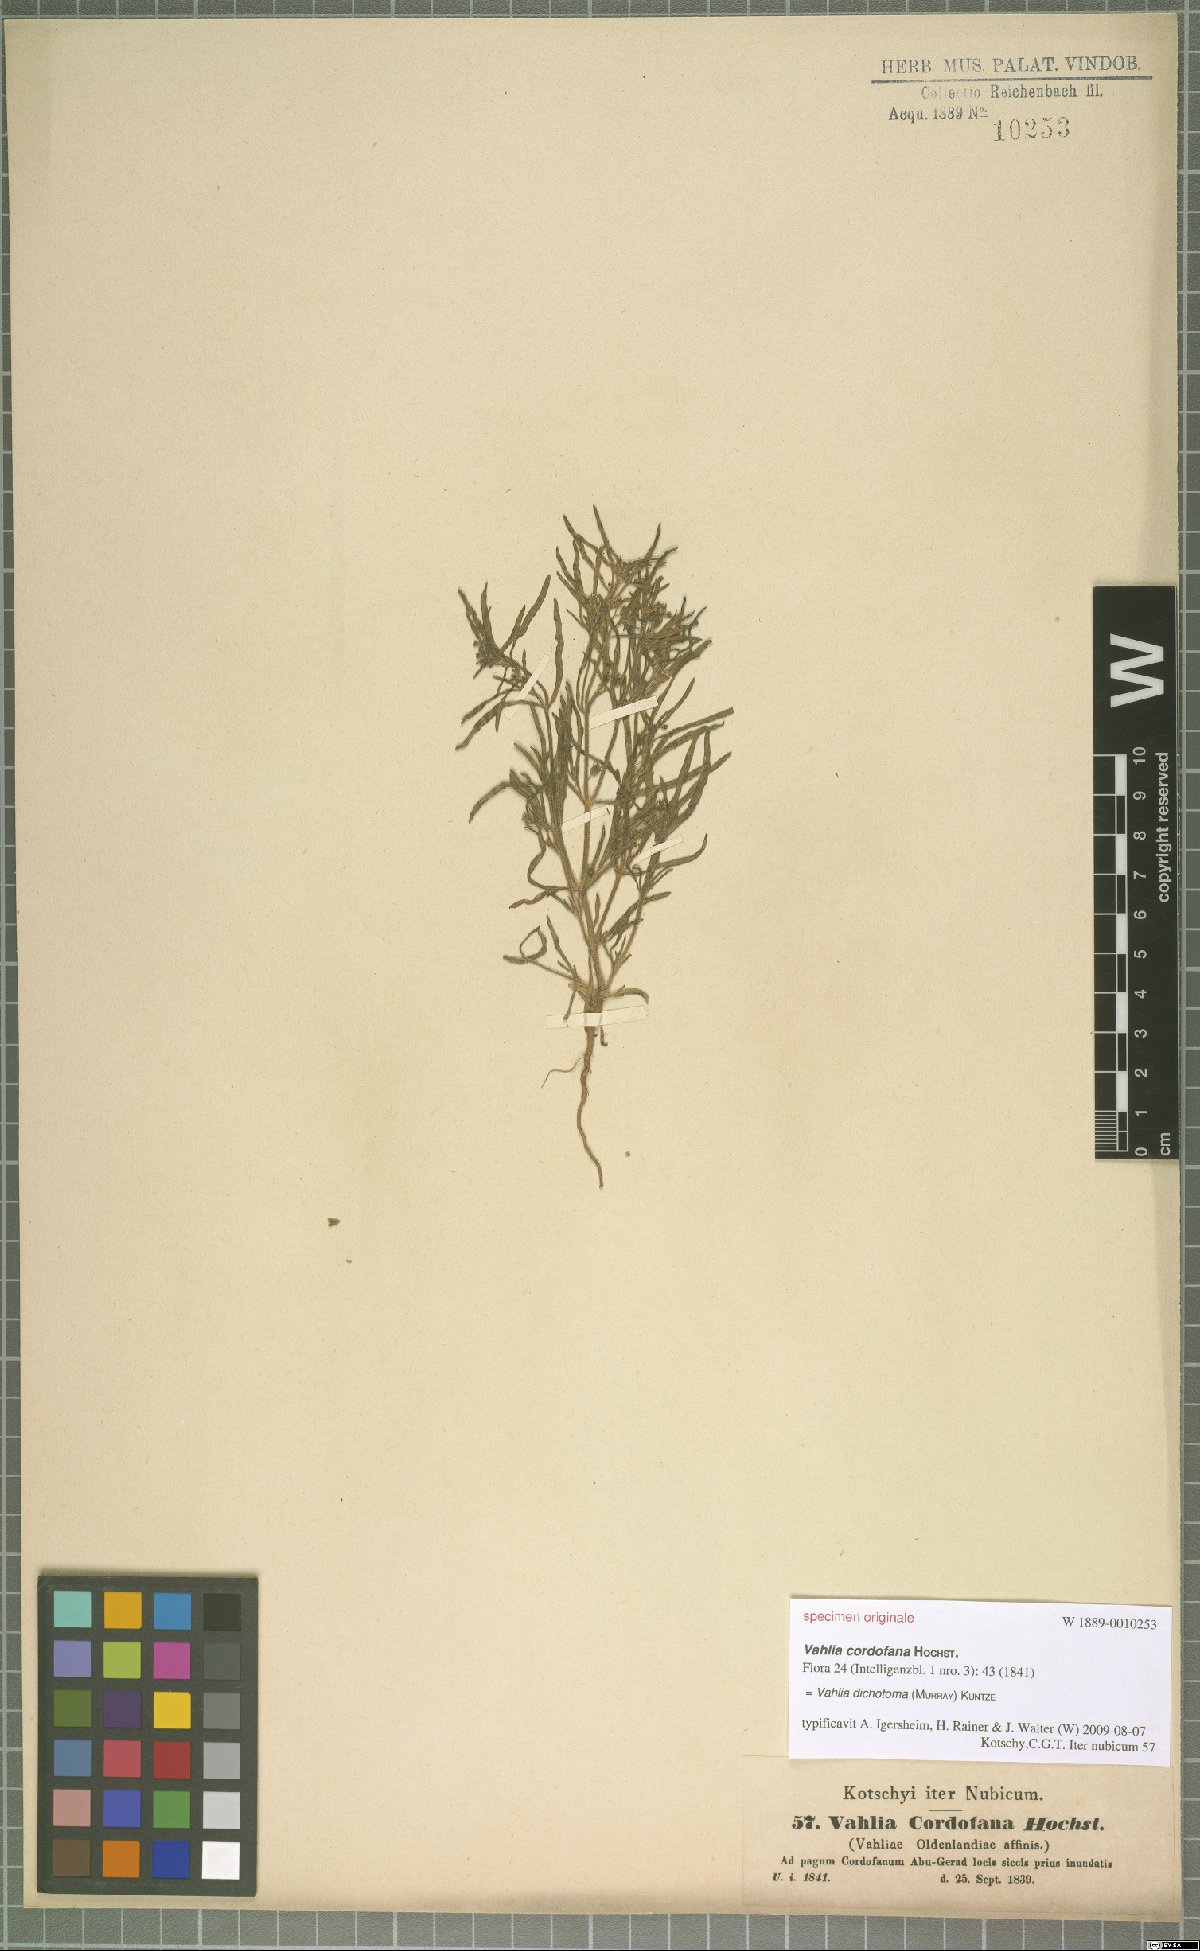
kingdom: Plantae
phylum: Tracheophyta
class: Magnoliopsida
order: Vahliales
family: Vahliaceae
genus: Vahlia
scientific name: Vahlia dichotoma
